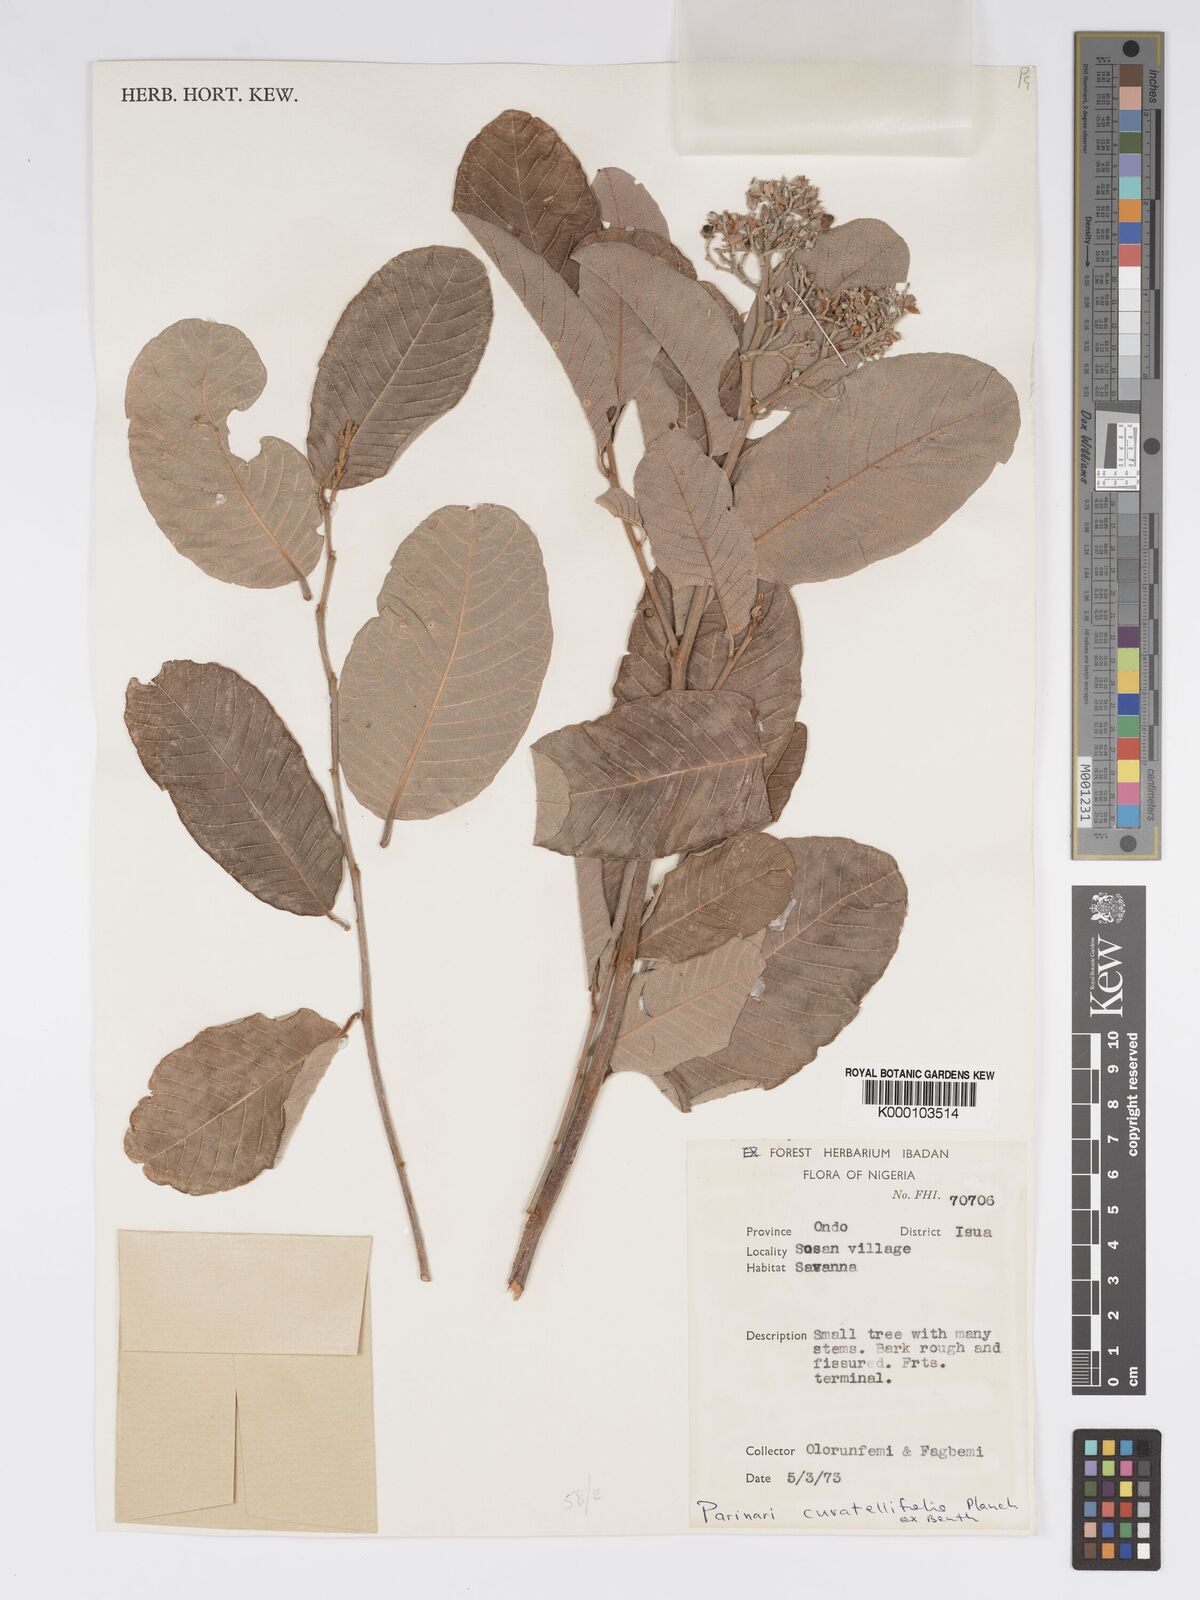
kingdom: Plantae
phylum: Tracheophyta
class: Magnoliopsida
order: Malpighiales
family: Chrysobalanaceae
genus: Parinari
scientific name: Parinari curatellifolia
